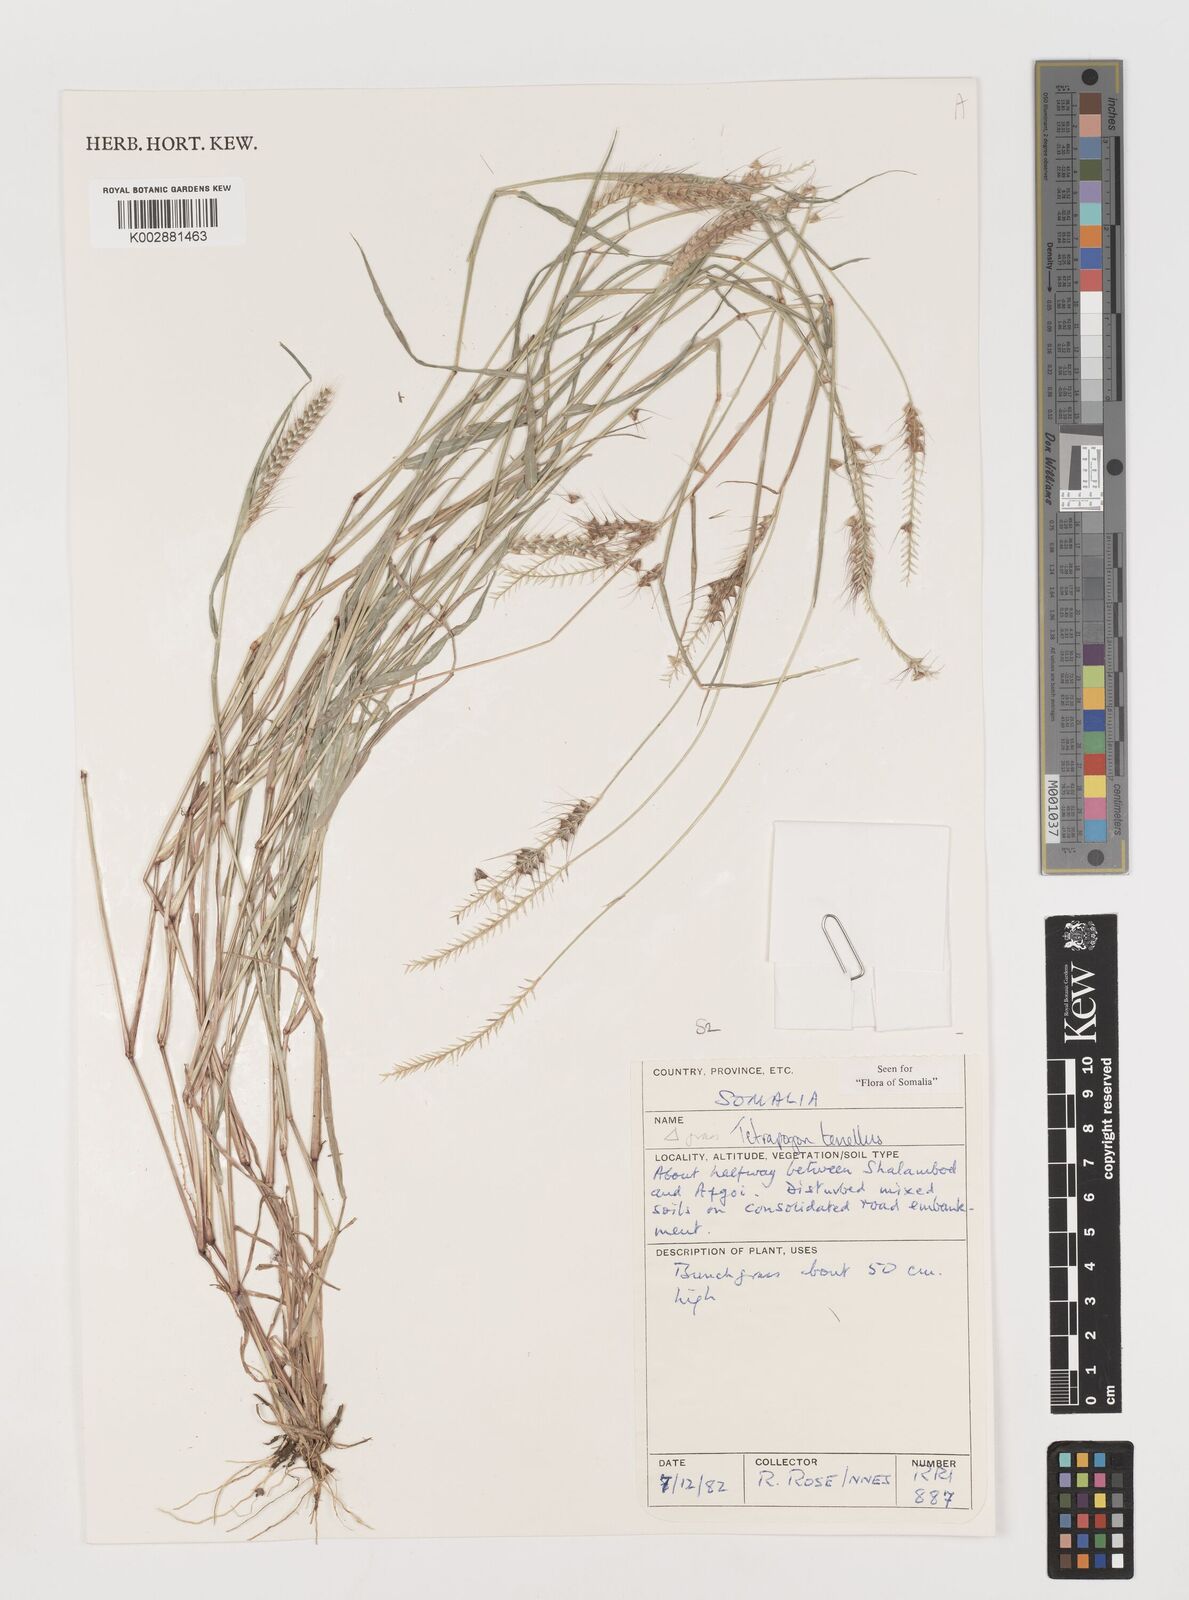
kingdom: Plantae
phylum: Tracheophyta
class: Liliopsida
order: Poales
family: Poaceae
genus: Tetrapogon
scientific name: Tetrapogon tenellus
